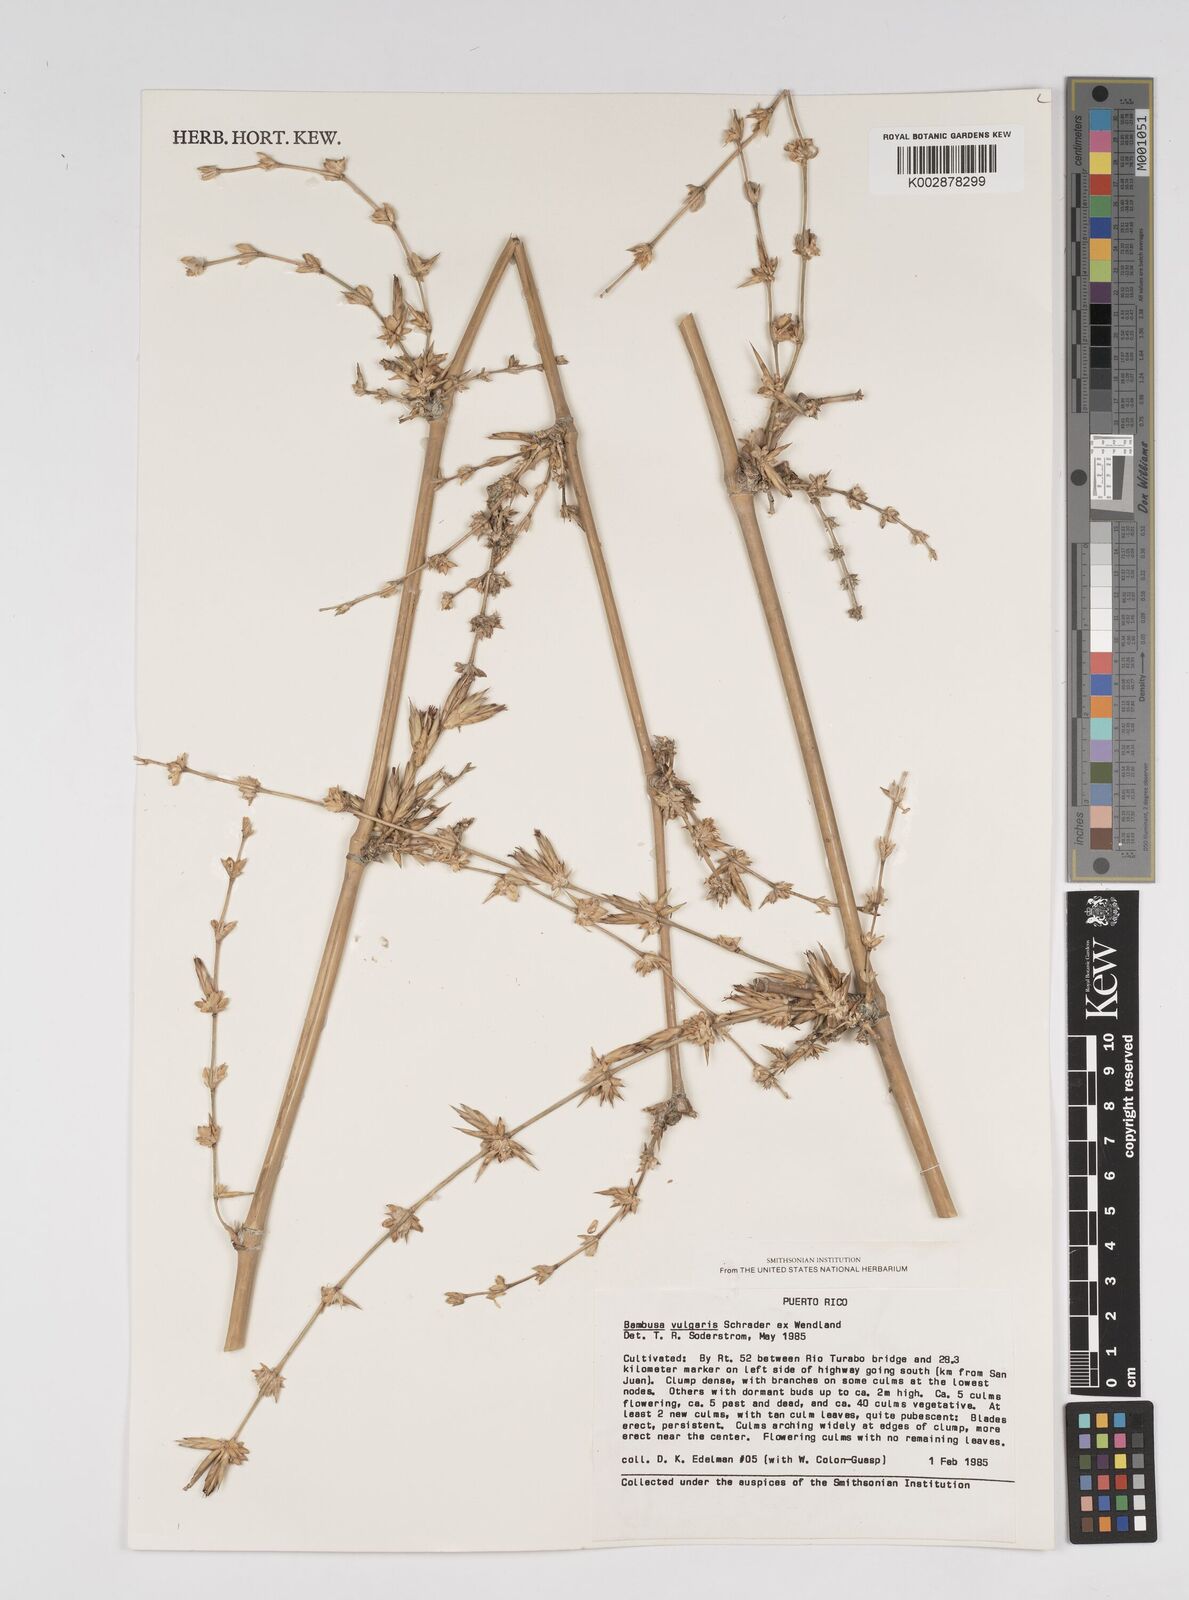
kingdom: Plantae
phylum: Tracheophyta
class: Liliopsida
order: Poales
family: Poaceae
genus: Bambusa
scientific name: Bambusa vulgaris
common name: Common bamboo
